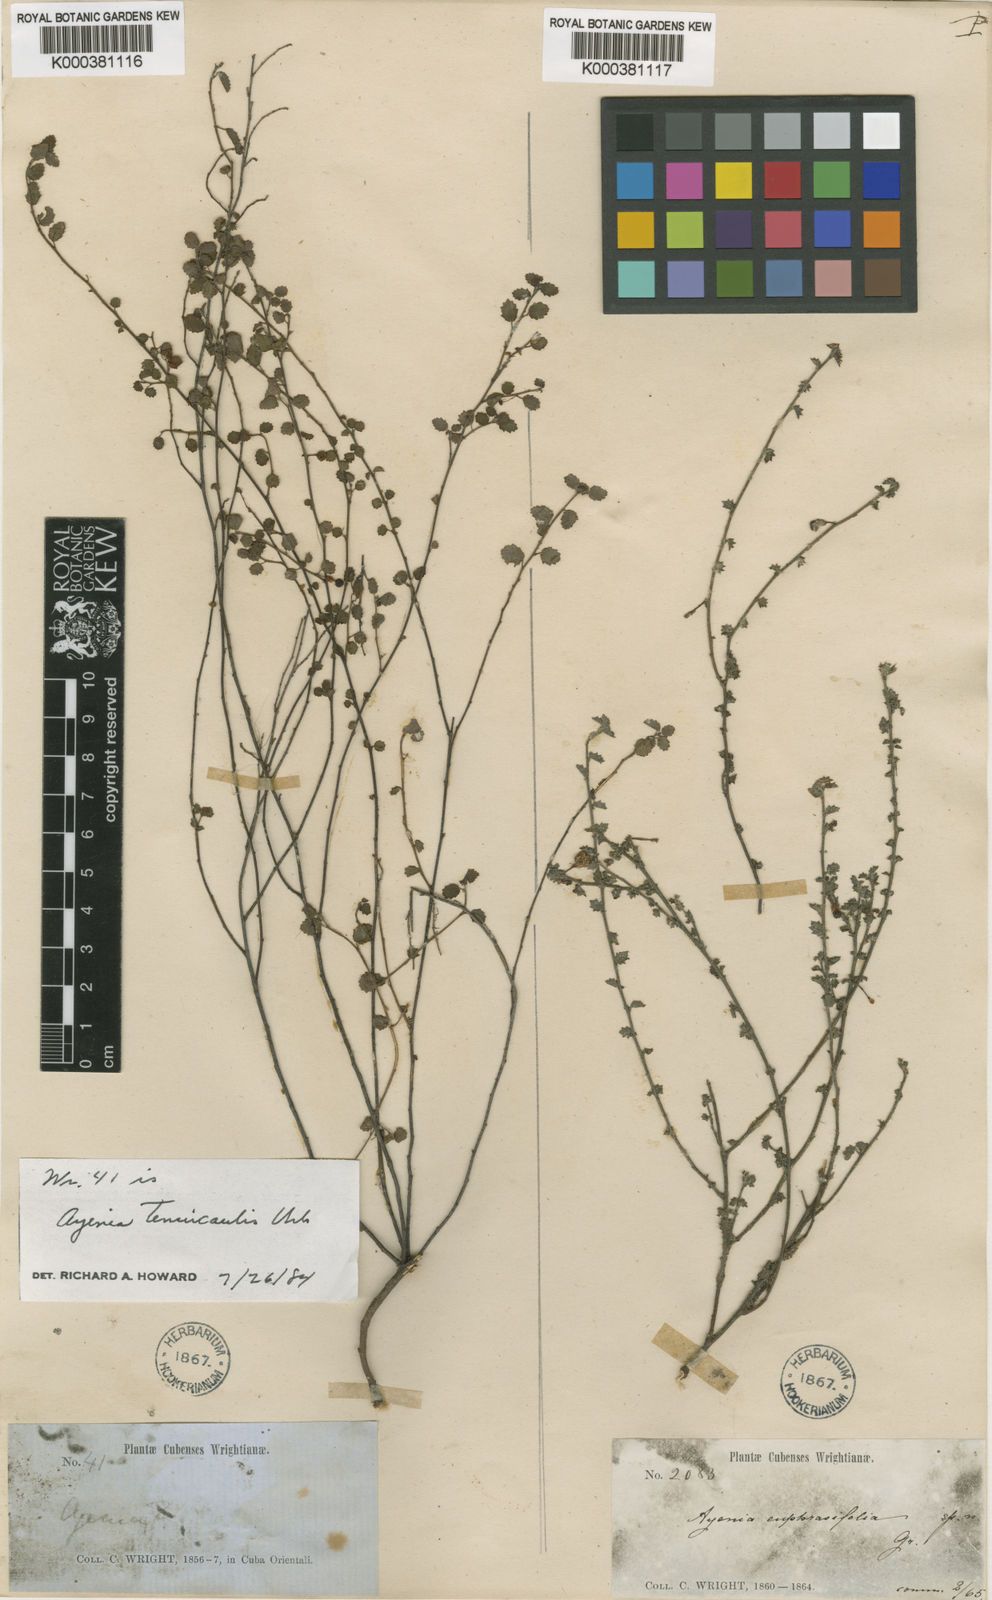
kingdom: Plantae
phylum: Tracheophyta
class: Magnoliopsida
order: Malvales
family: Malvaceae
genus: Ayenia
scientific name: Ayenia euphrasiifolia
